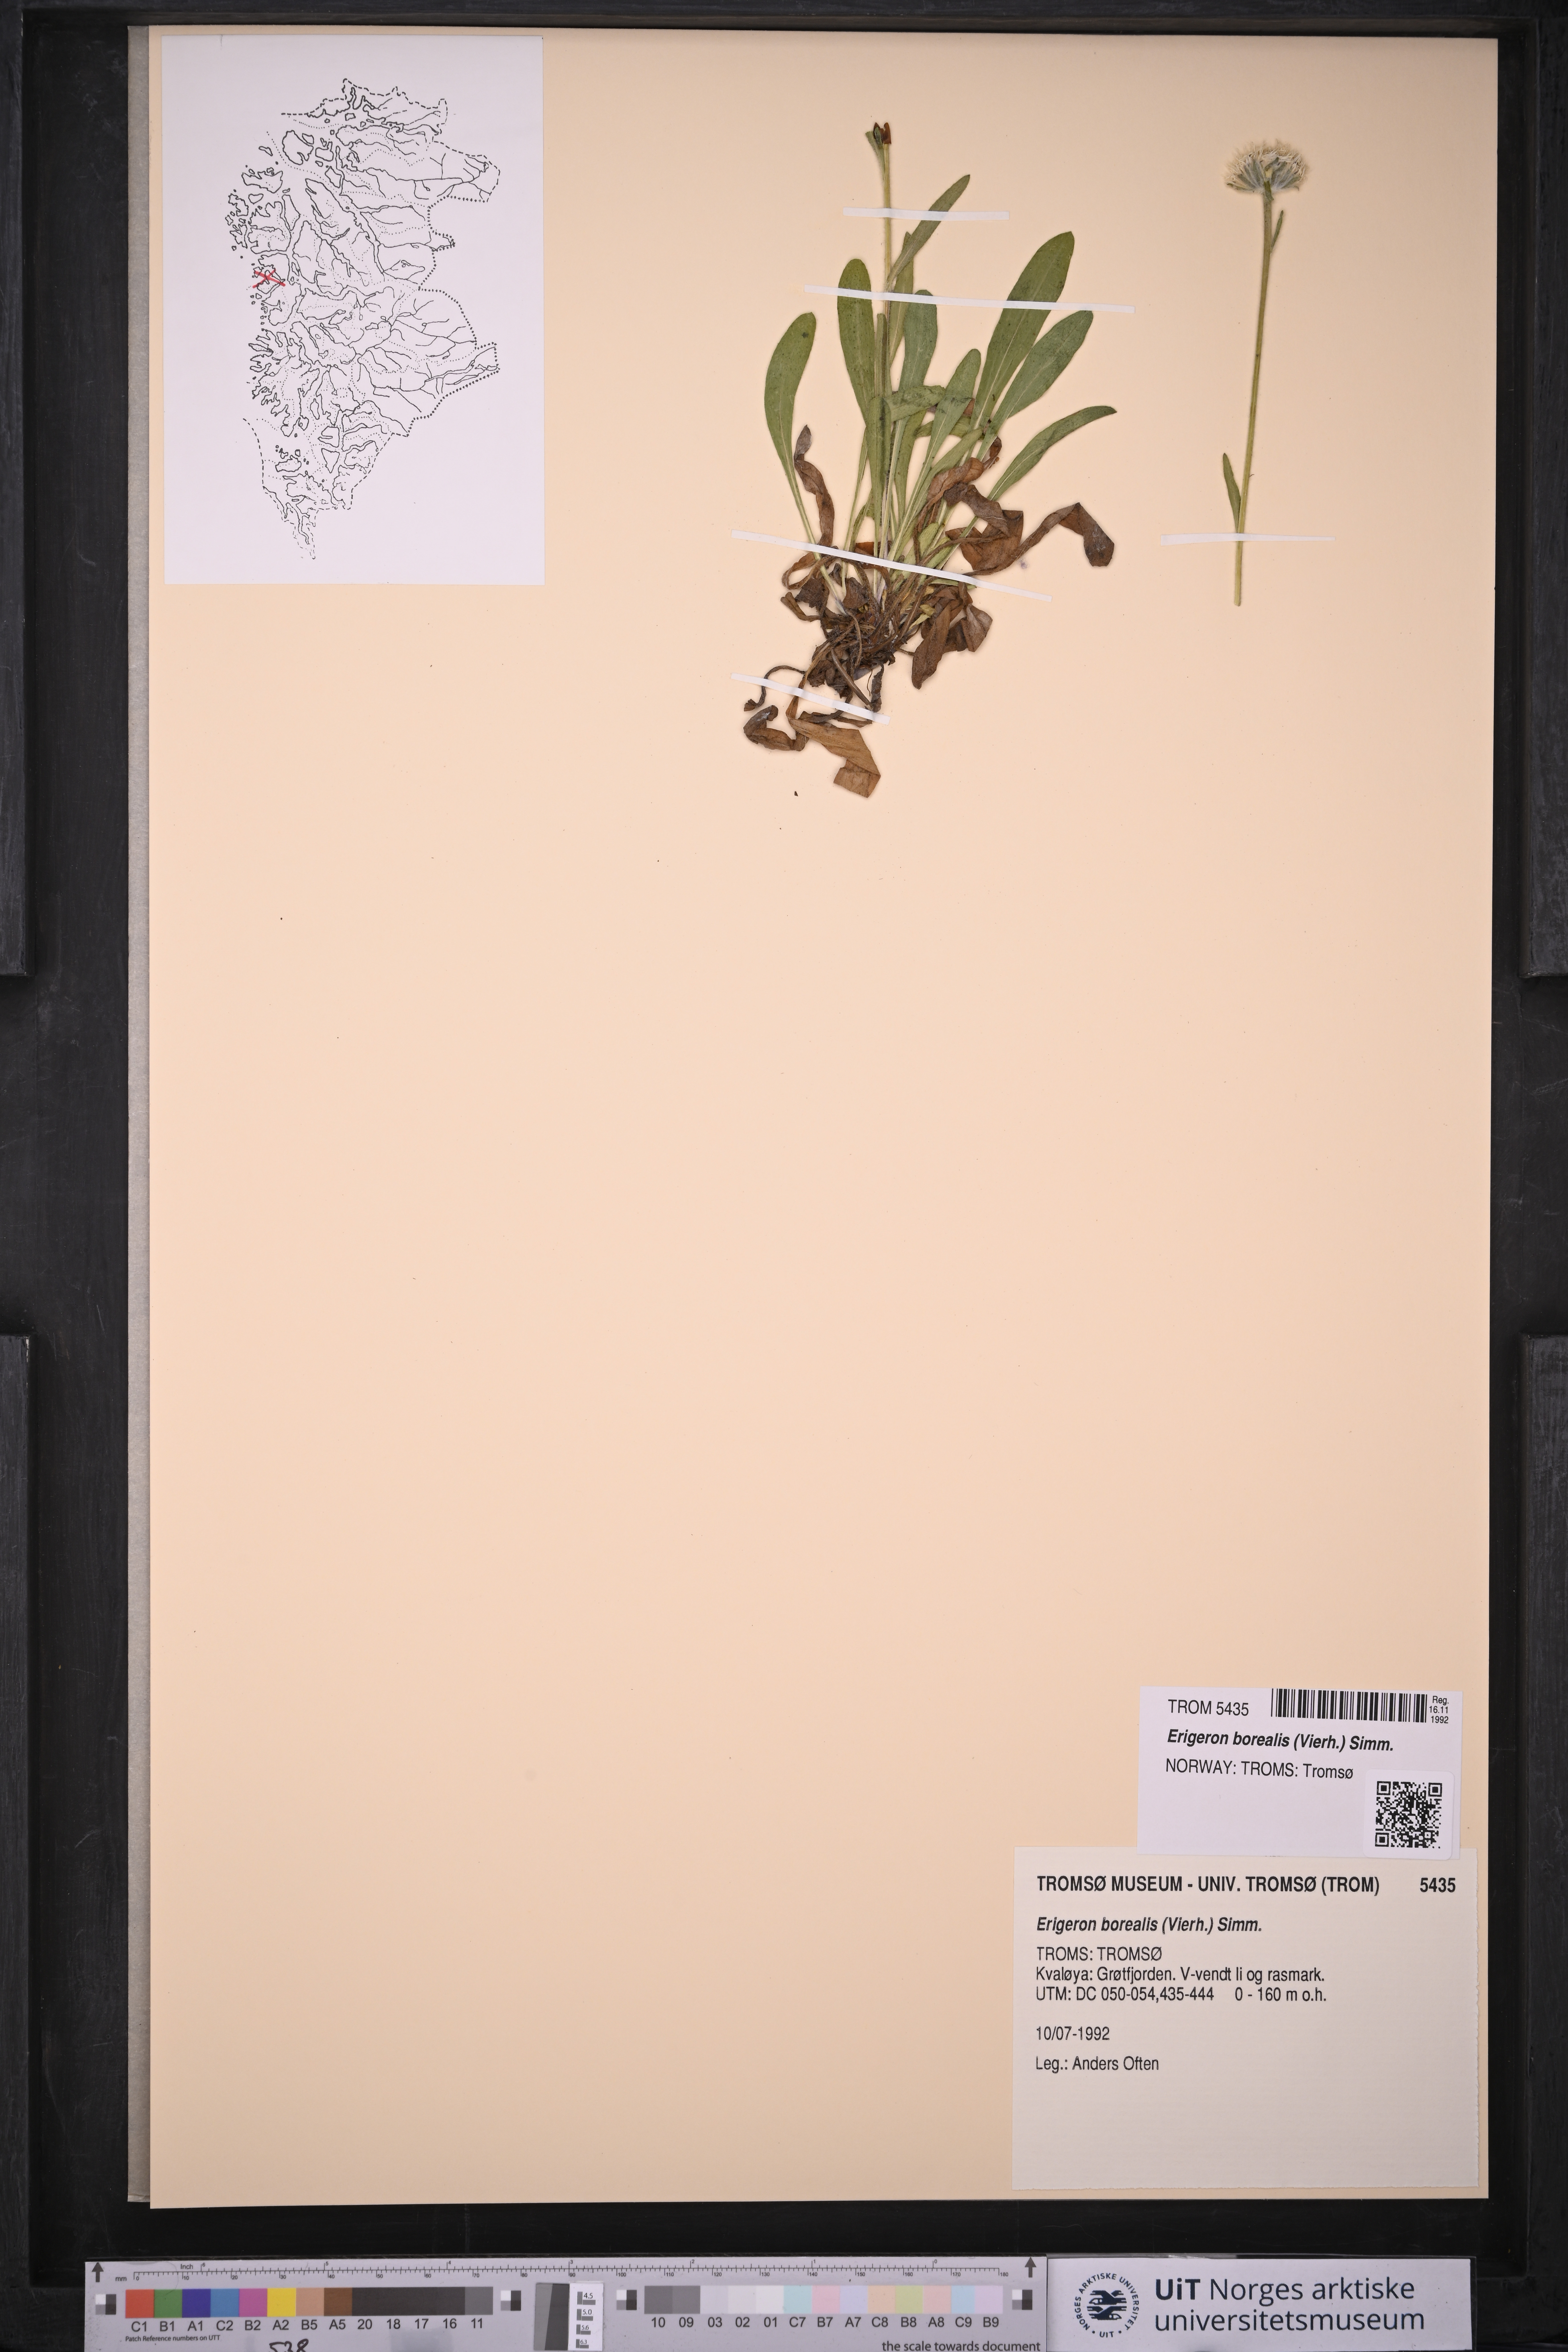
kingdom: Plantae
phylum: Tracheophyta
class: Magnoliopsida
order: Asterales
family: Asteraceae
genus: Erigeron
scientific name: Erigeron borealis
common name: Alpine fleabane
